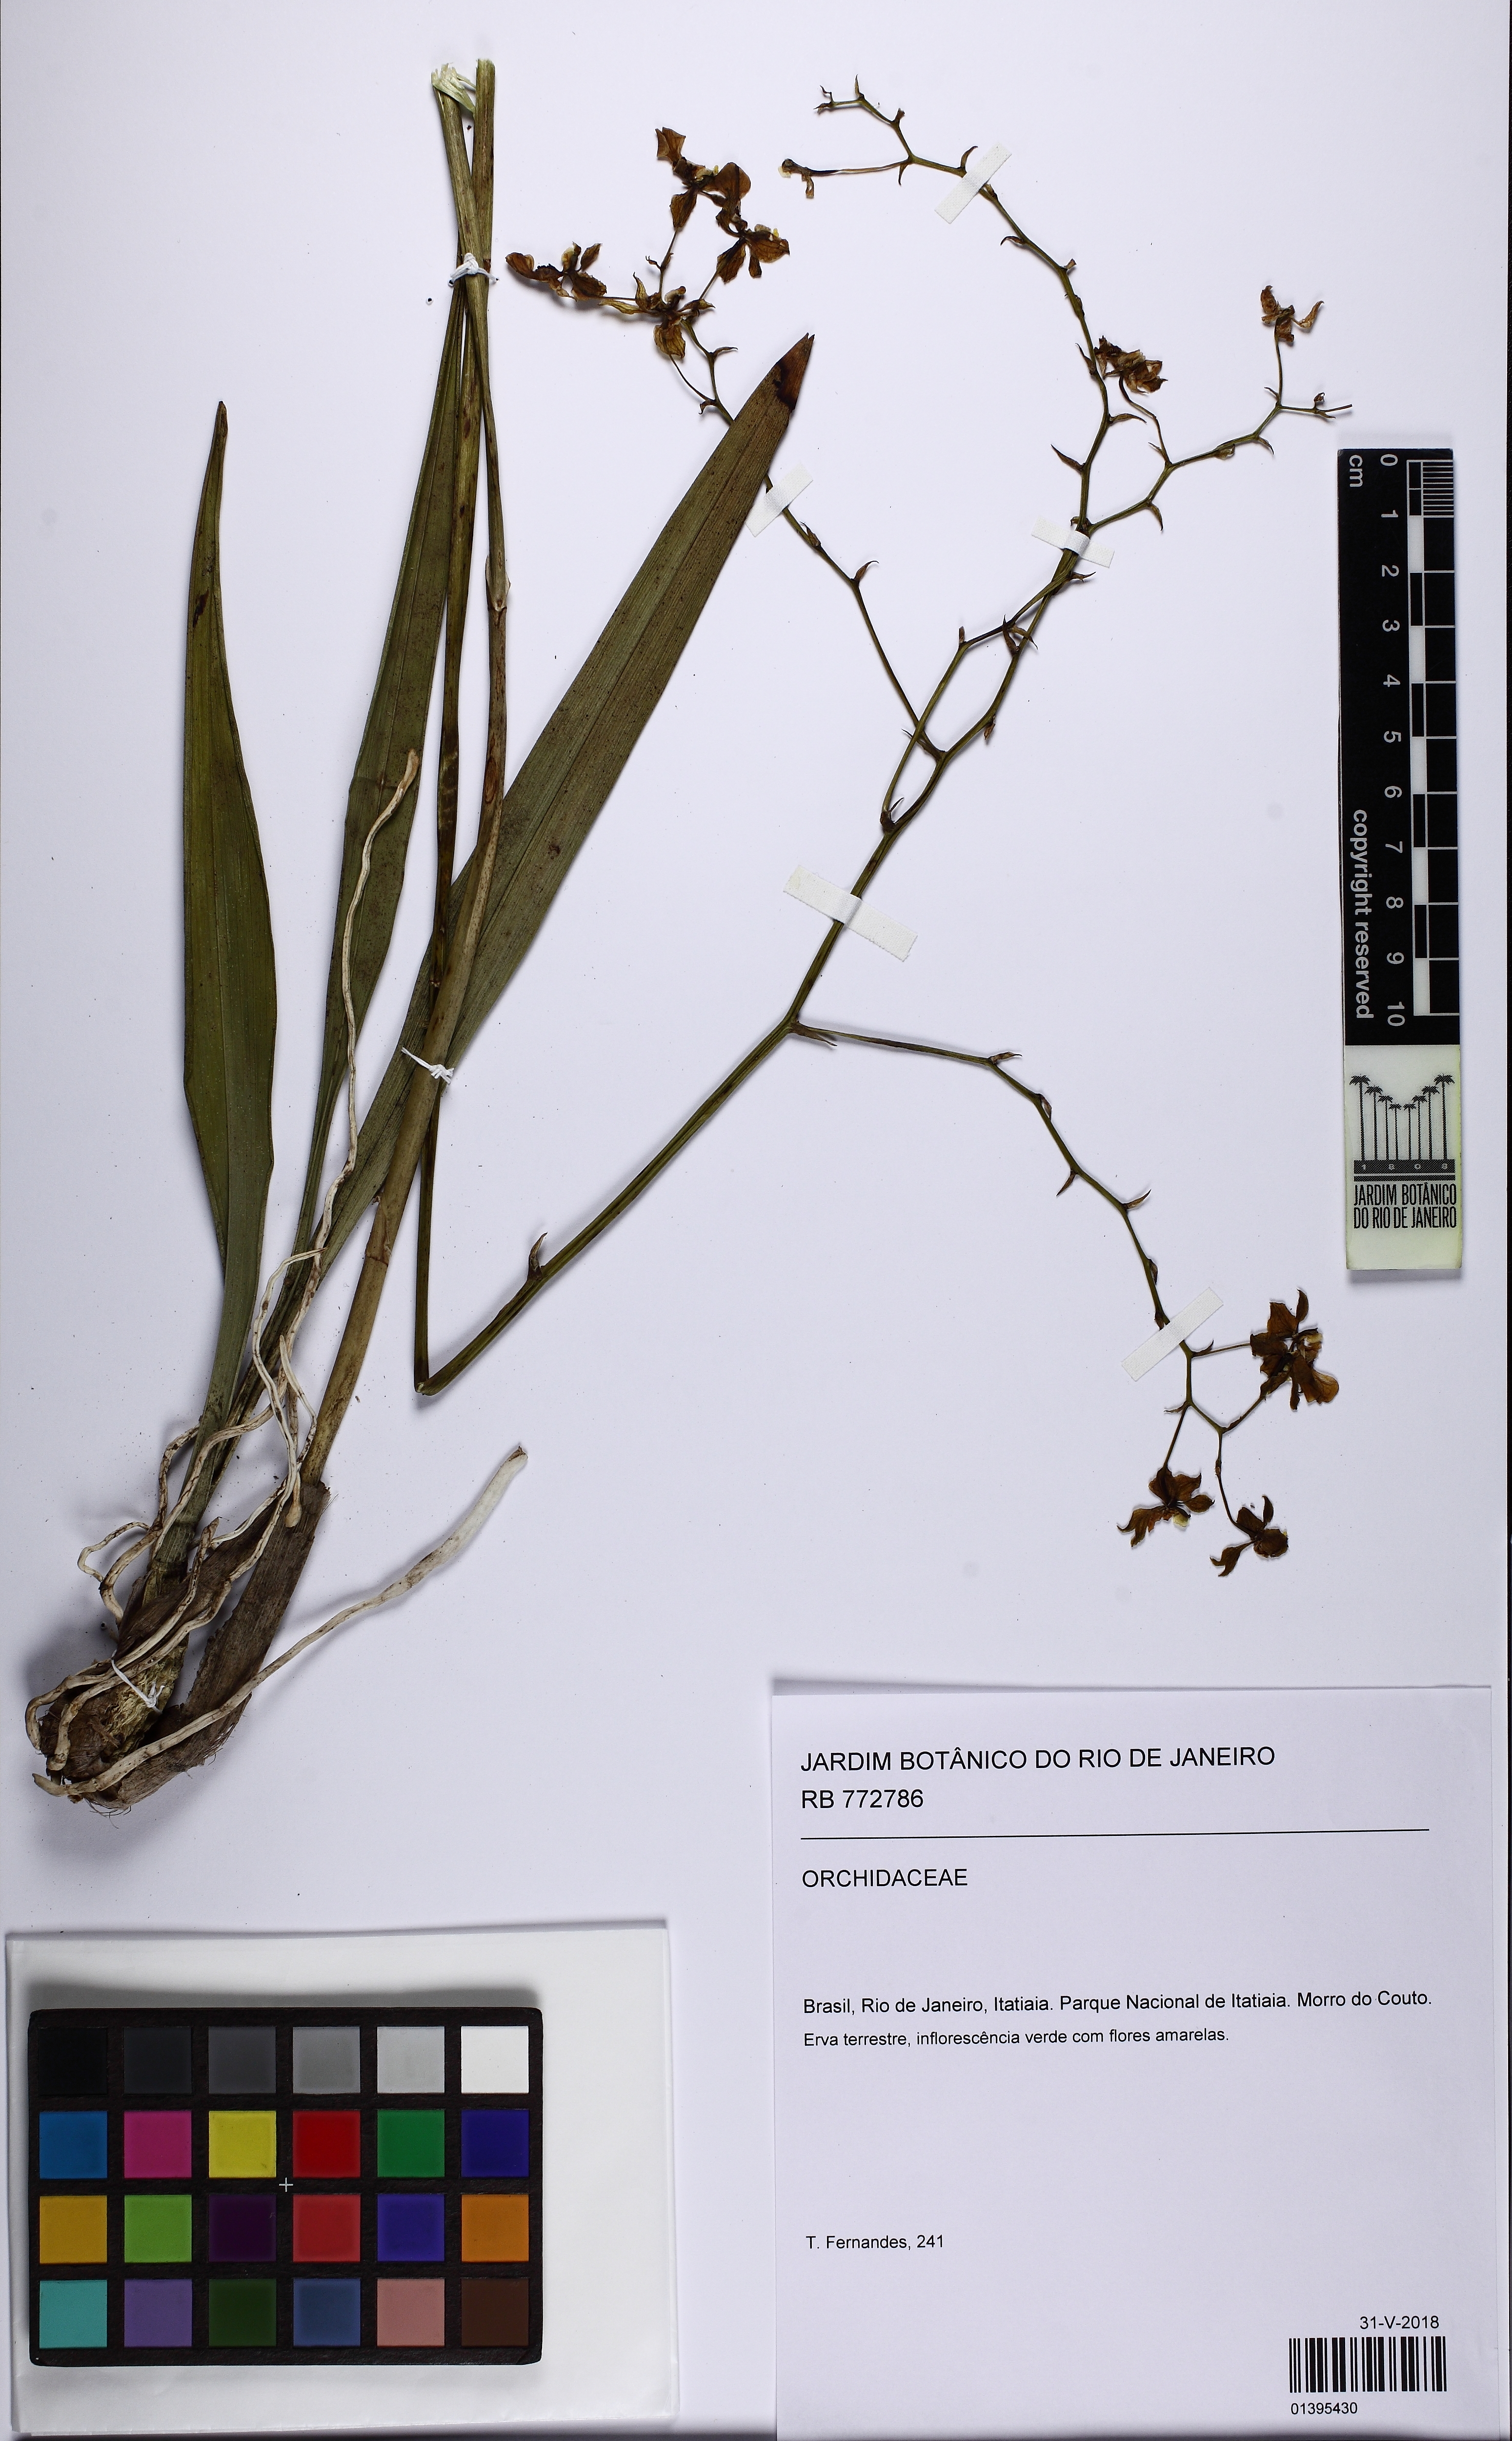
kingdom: Plantae
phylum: Tracheophyta
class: Liliopsida
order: Asparagales
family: Orchidaceae
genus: Gomesa
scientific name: Gomesa
